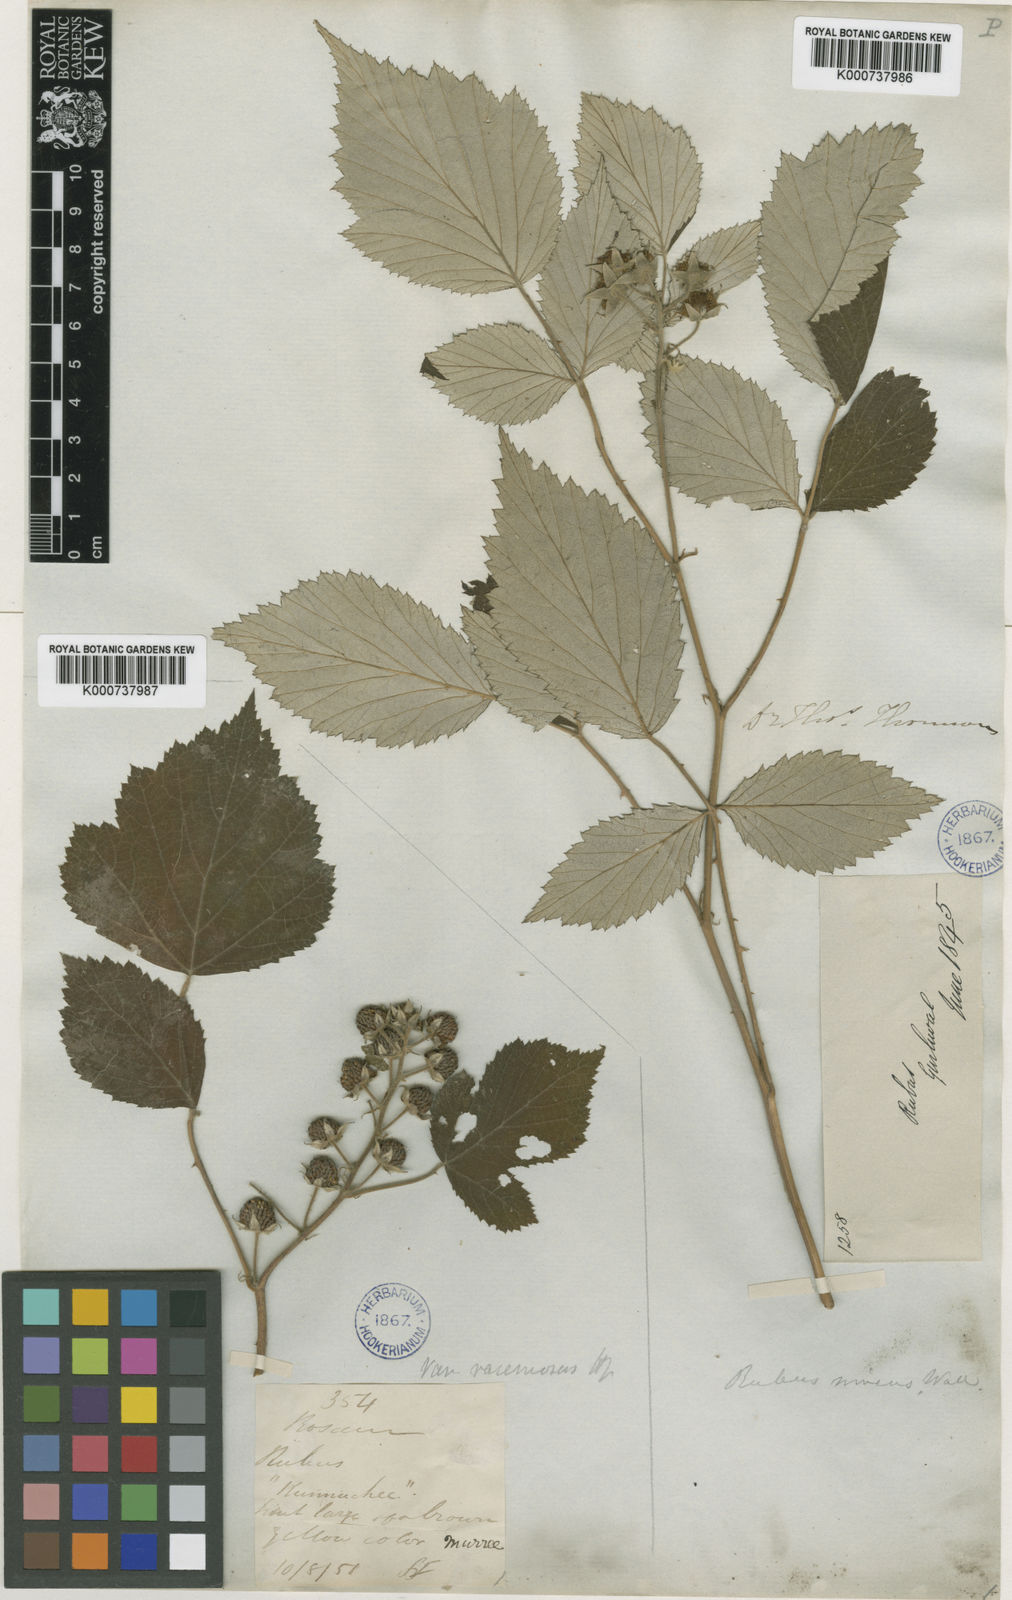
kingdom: Plantae
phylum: Tracheophyta
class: Magnoliopsida
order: Rosales
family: Rosaceae
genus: Rubus
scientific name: Rubus pedunculosus
